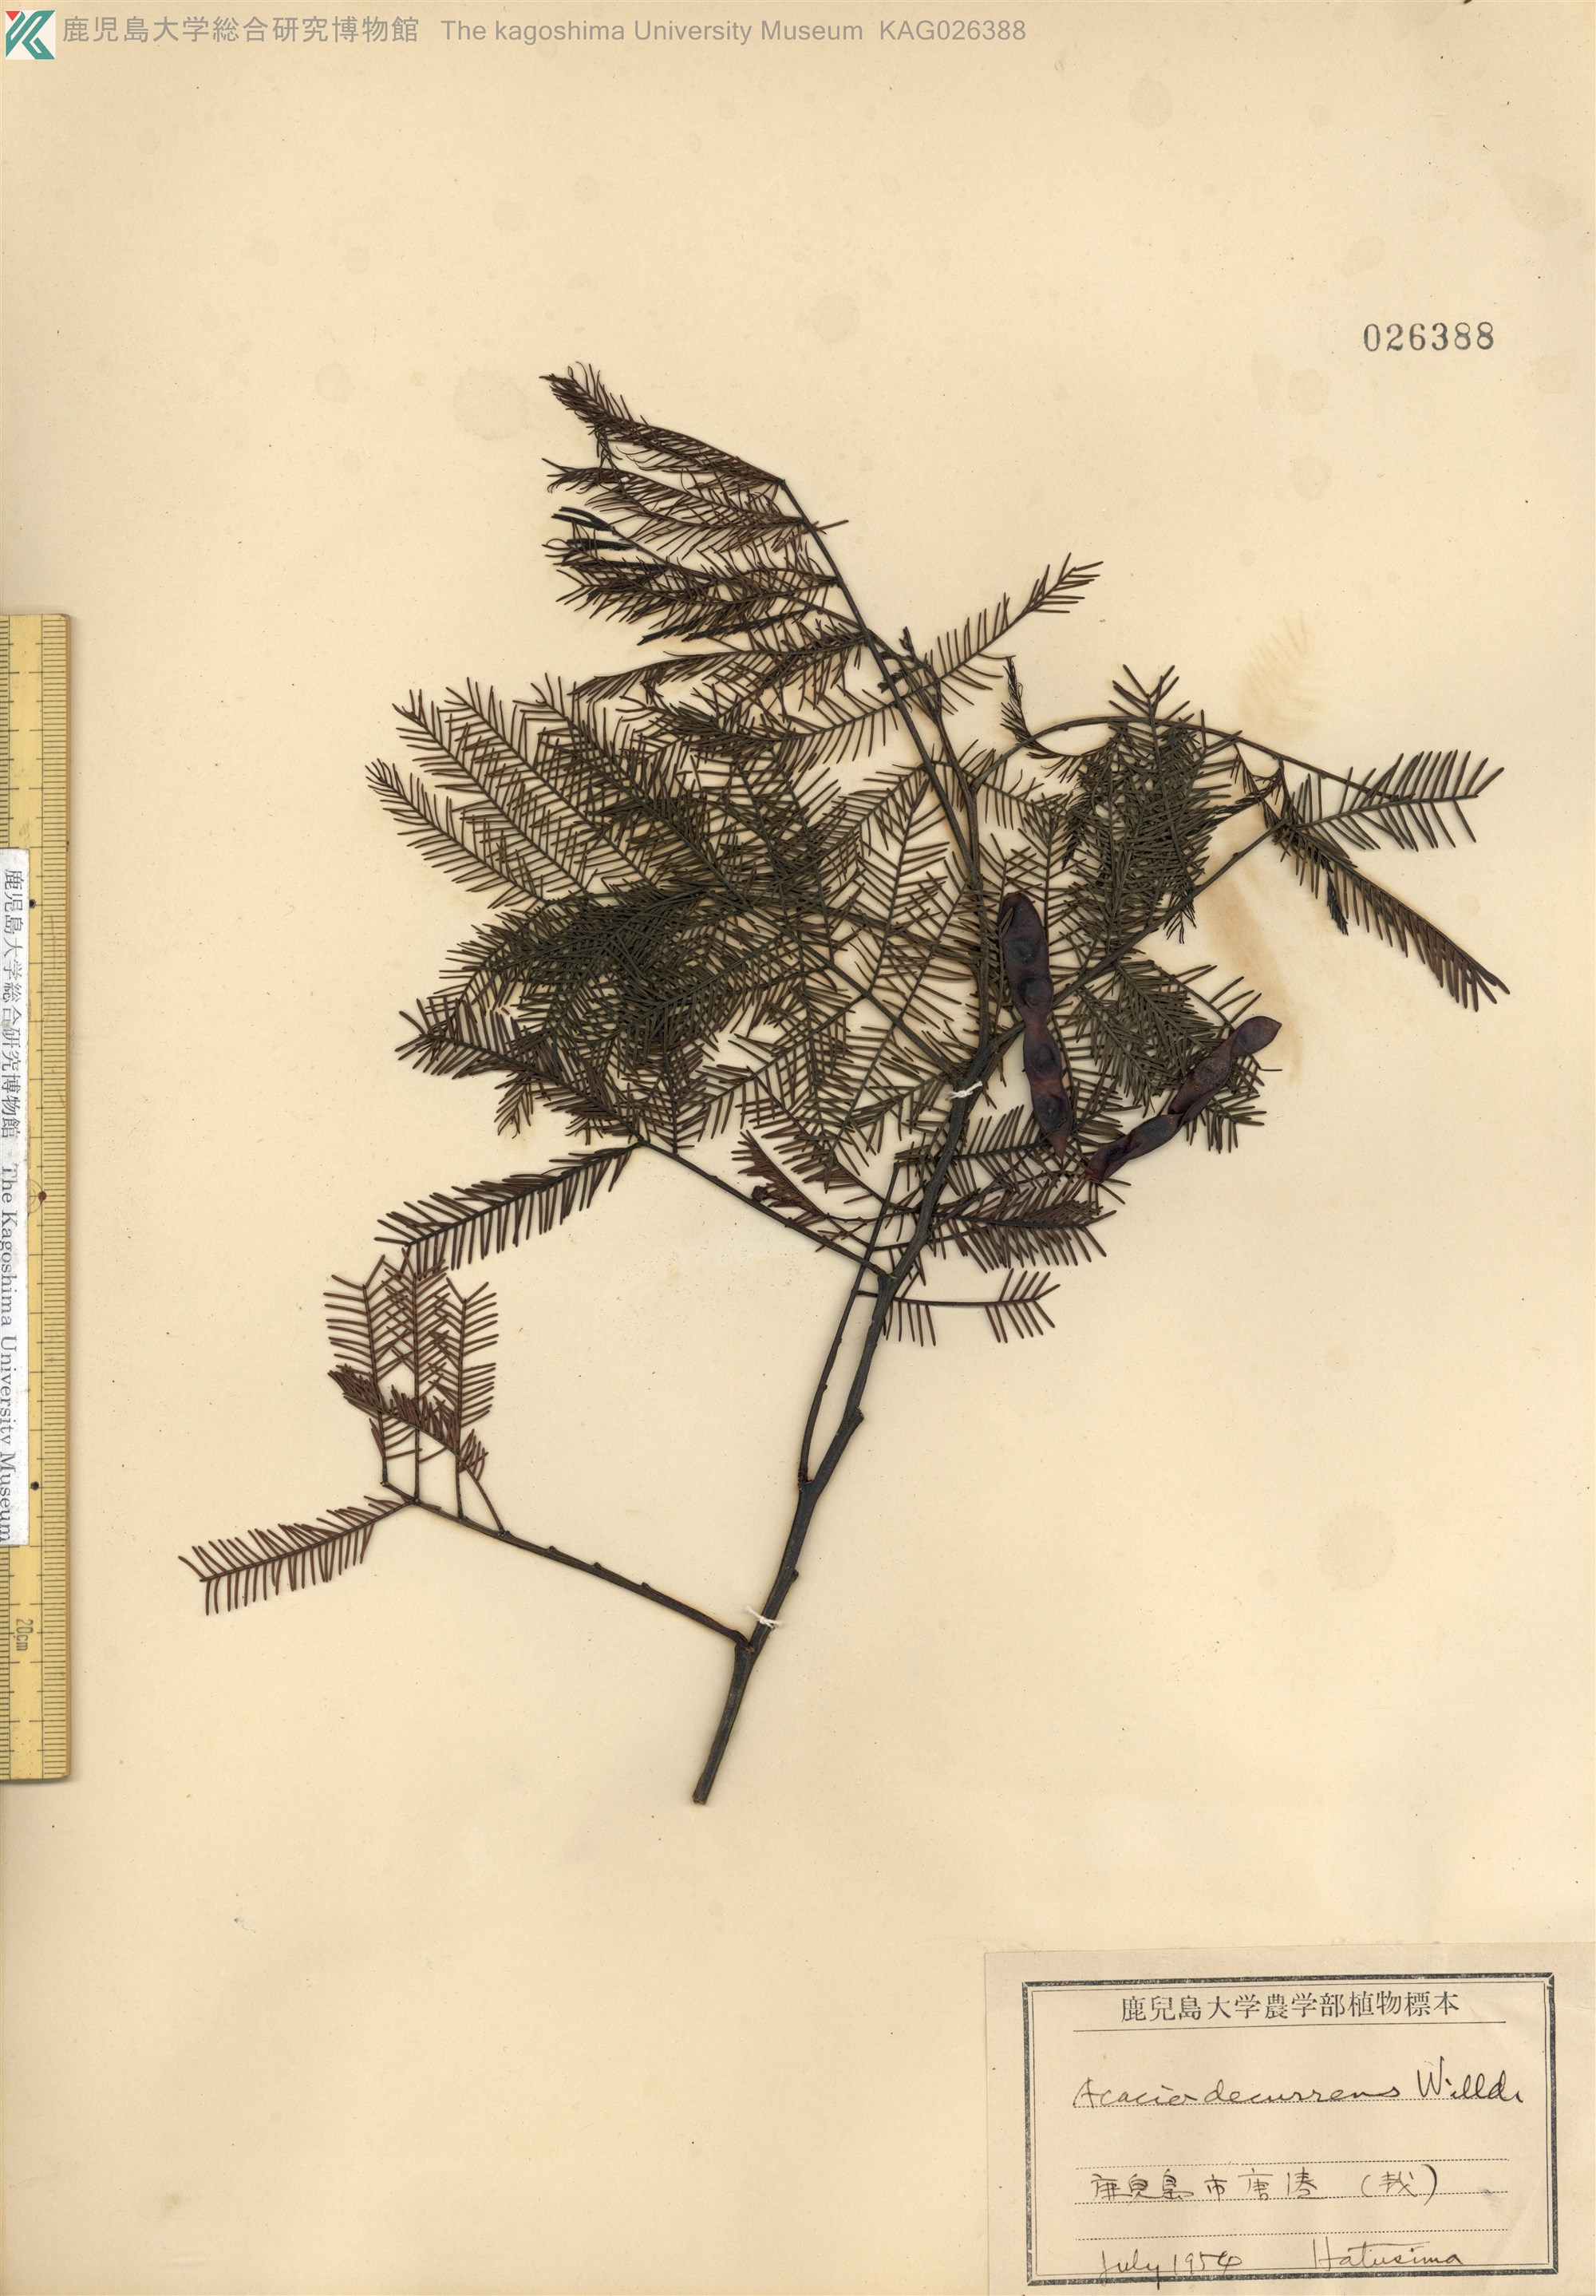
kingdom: Plantae
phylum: Tracheophyta
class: Magnoliopsida
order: Fabales
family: Fabaceae
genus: Acacia
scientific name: Acacia mearnsii
